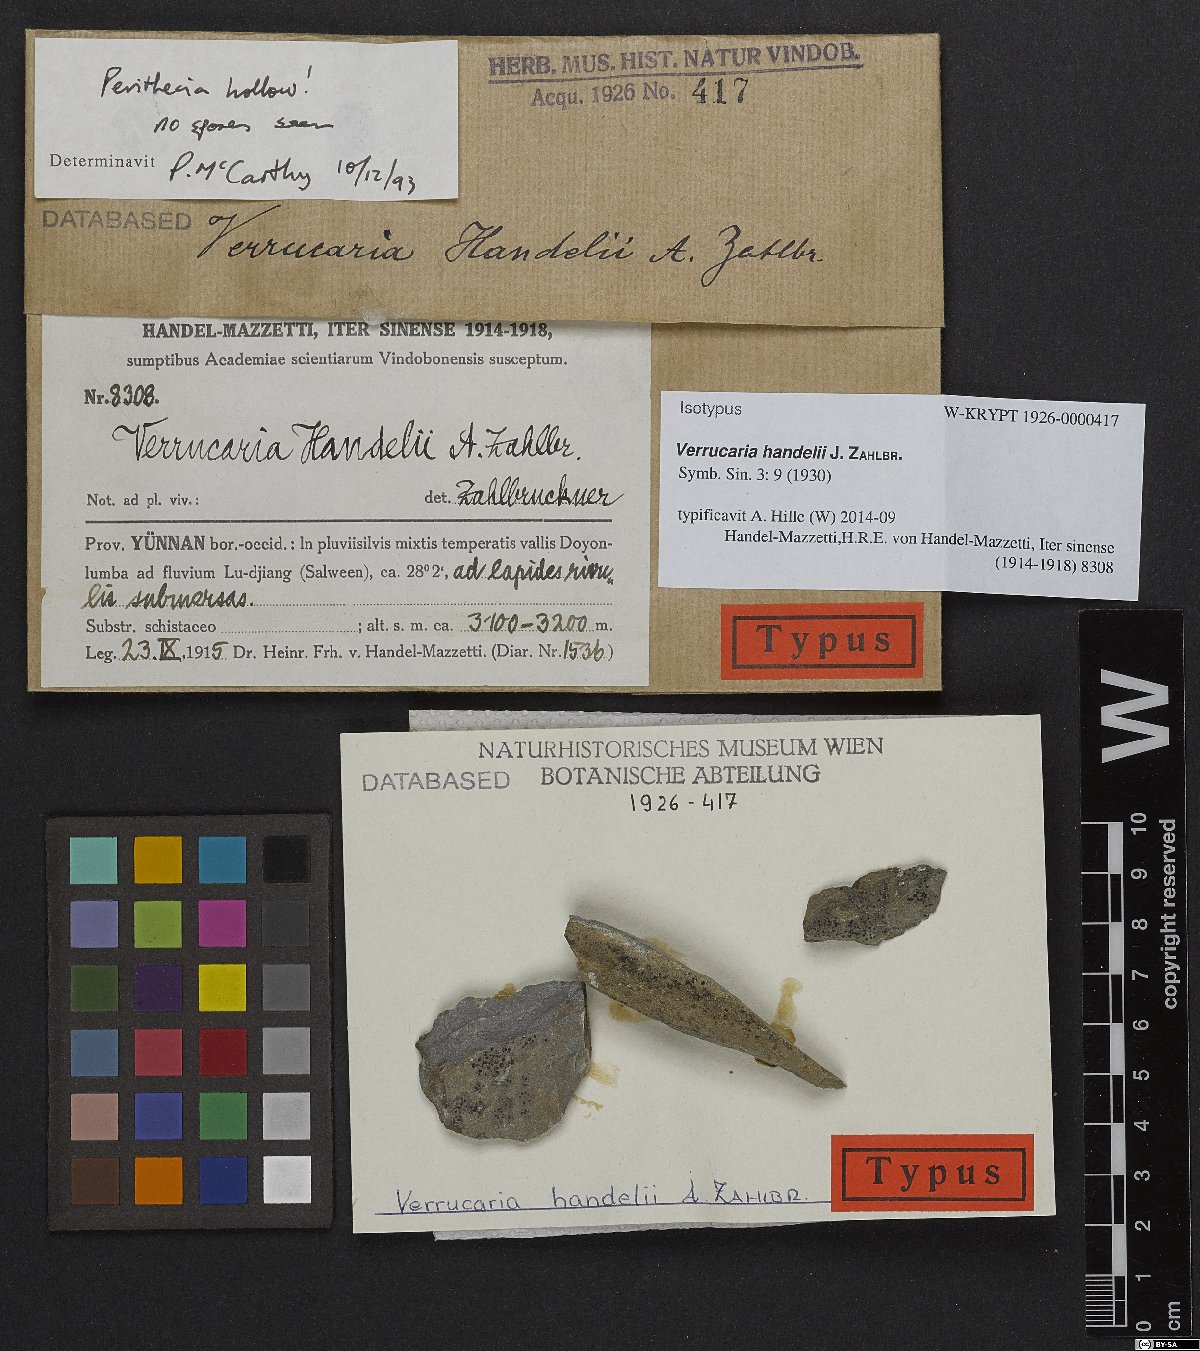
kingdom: Fungi
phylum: Ascomycota
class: Eurotiomycetes
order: Verrucariales
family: Verrucariaceae
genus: Verrucaria
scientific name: Verrucaria
